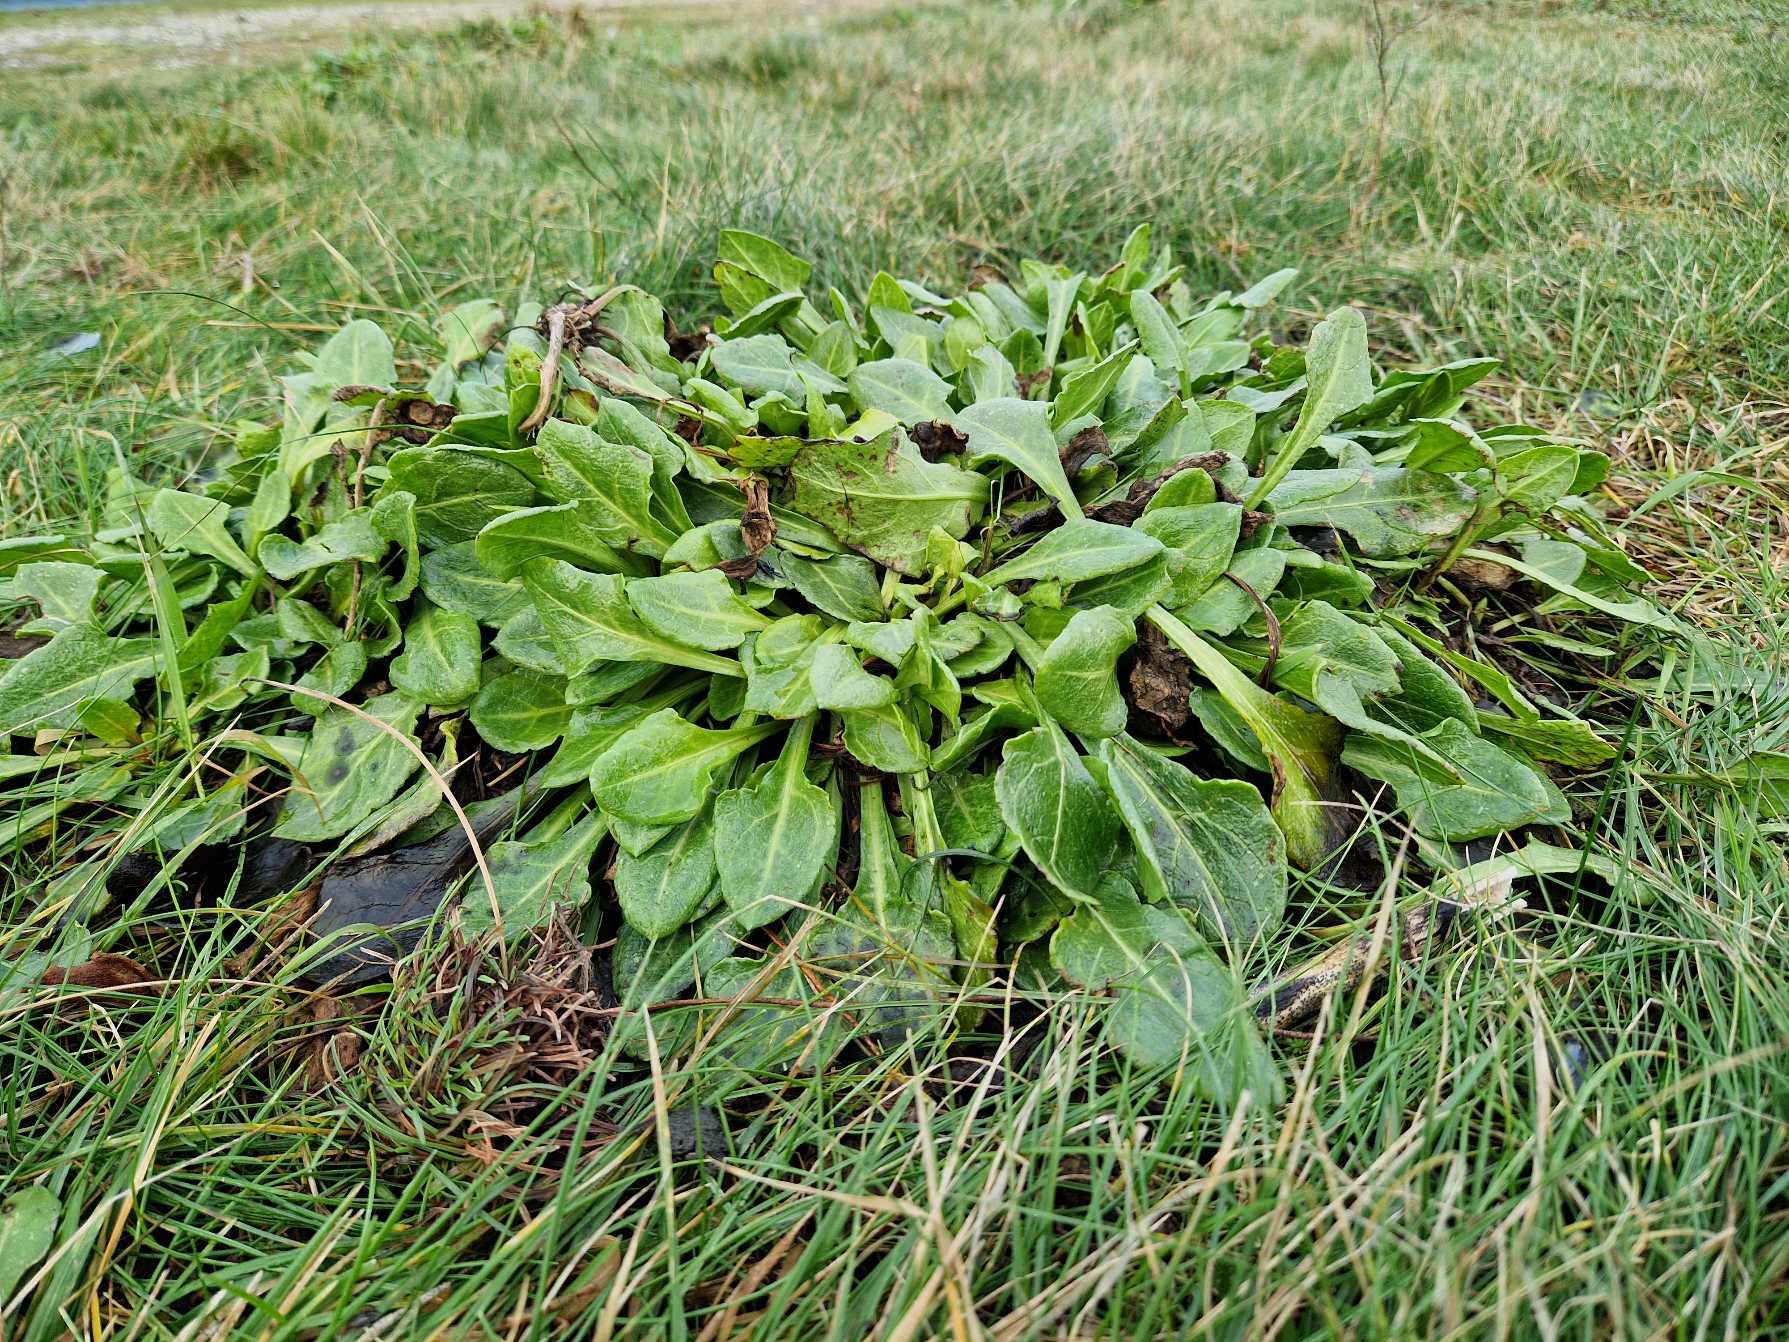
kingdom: Plantae
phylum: Tracheophyta
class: Magnoliopsida
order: Caryophyllales
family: Amaranthaceae
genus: Beta
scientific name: Beta maritima
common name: Strand-bede
